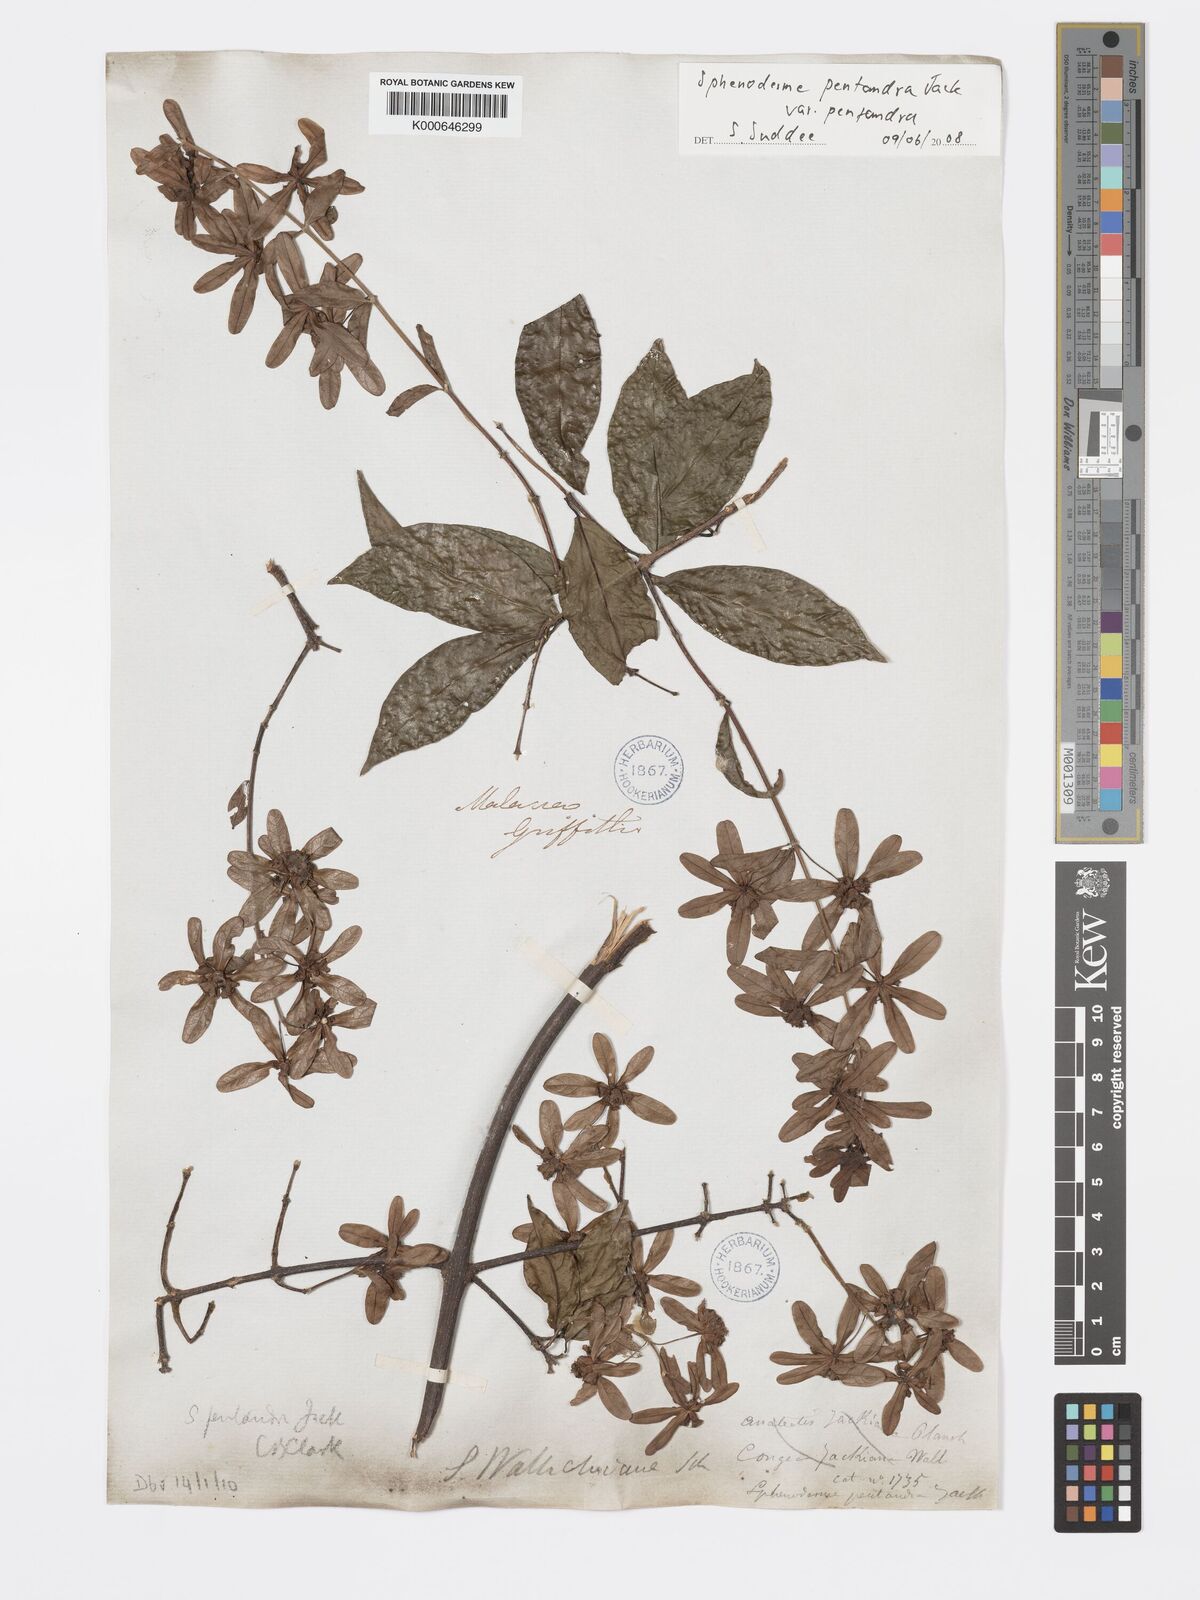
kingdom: Plantae
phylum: Tracheophyta
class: Magnoliopsida
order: Lamiales
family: Lamiaceae
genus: Sphenodesme
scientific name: Sphenodesme pentandra
